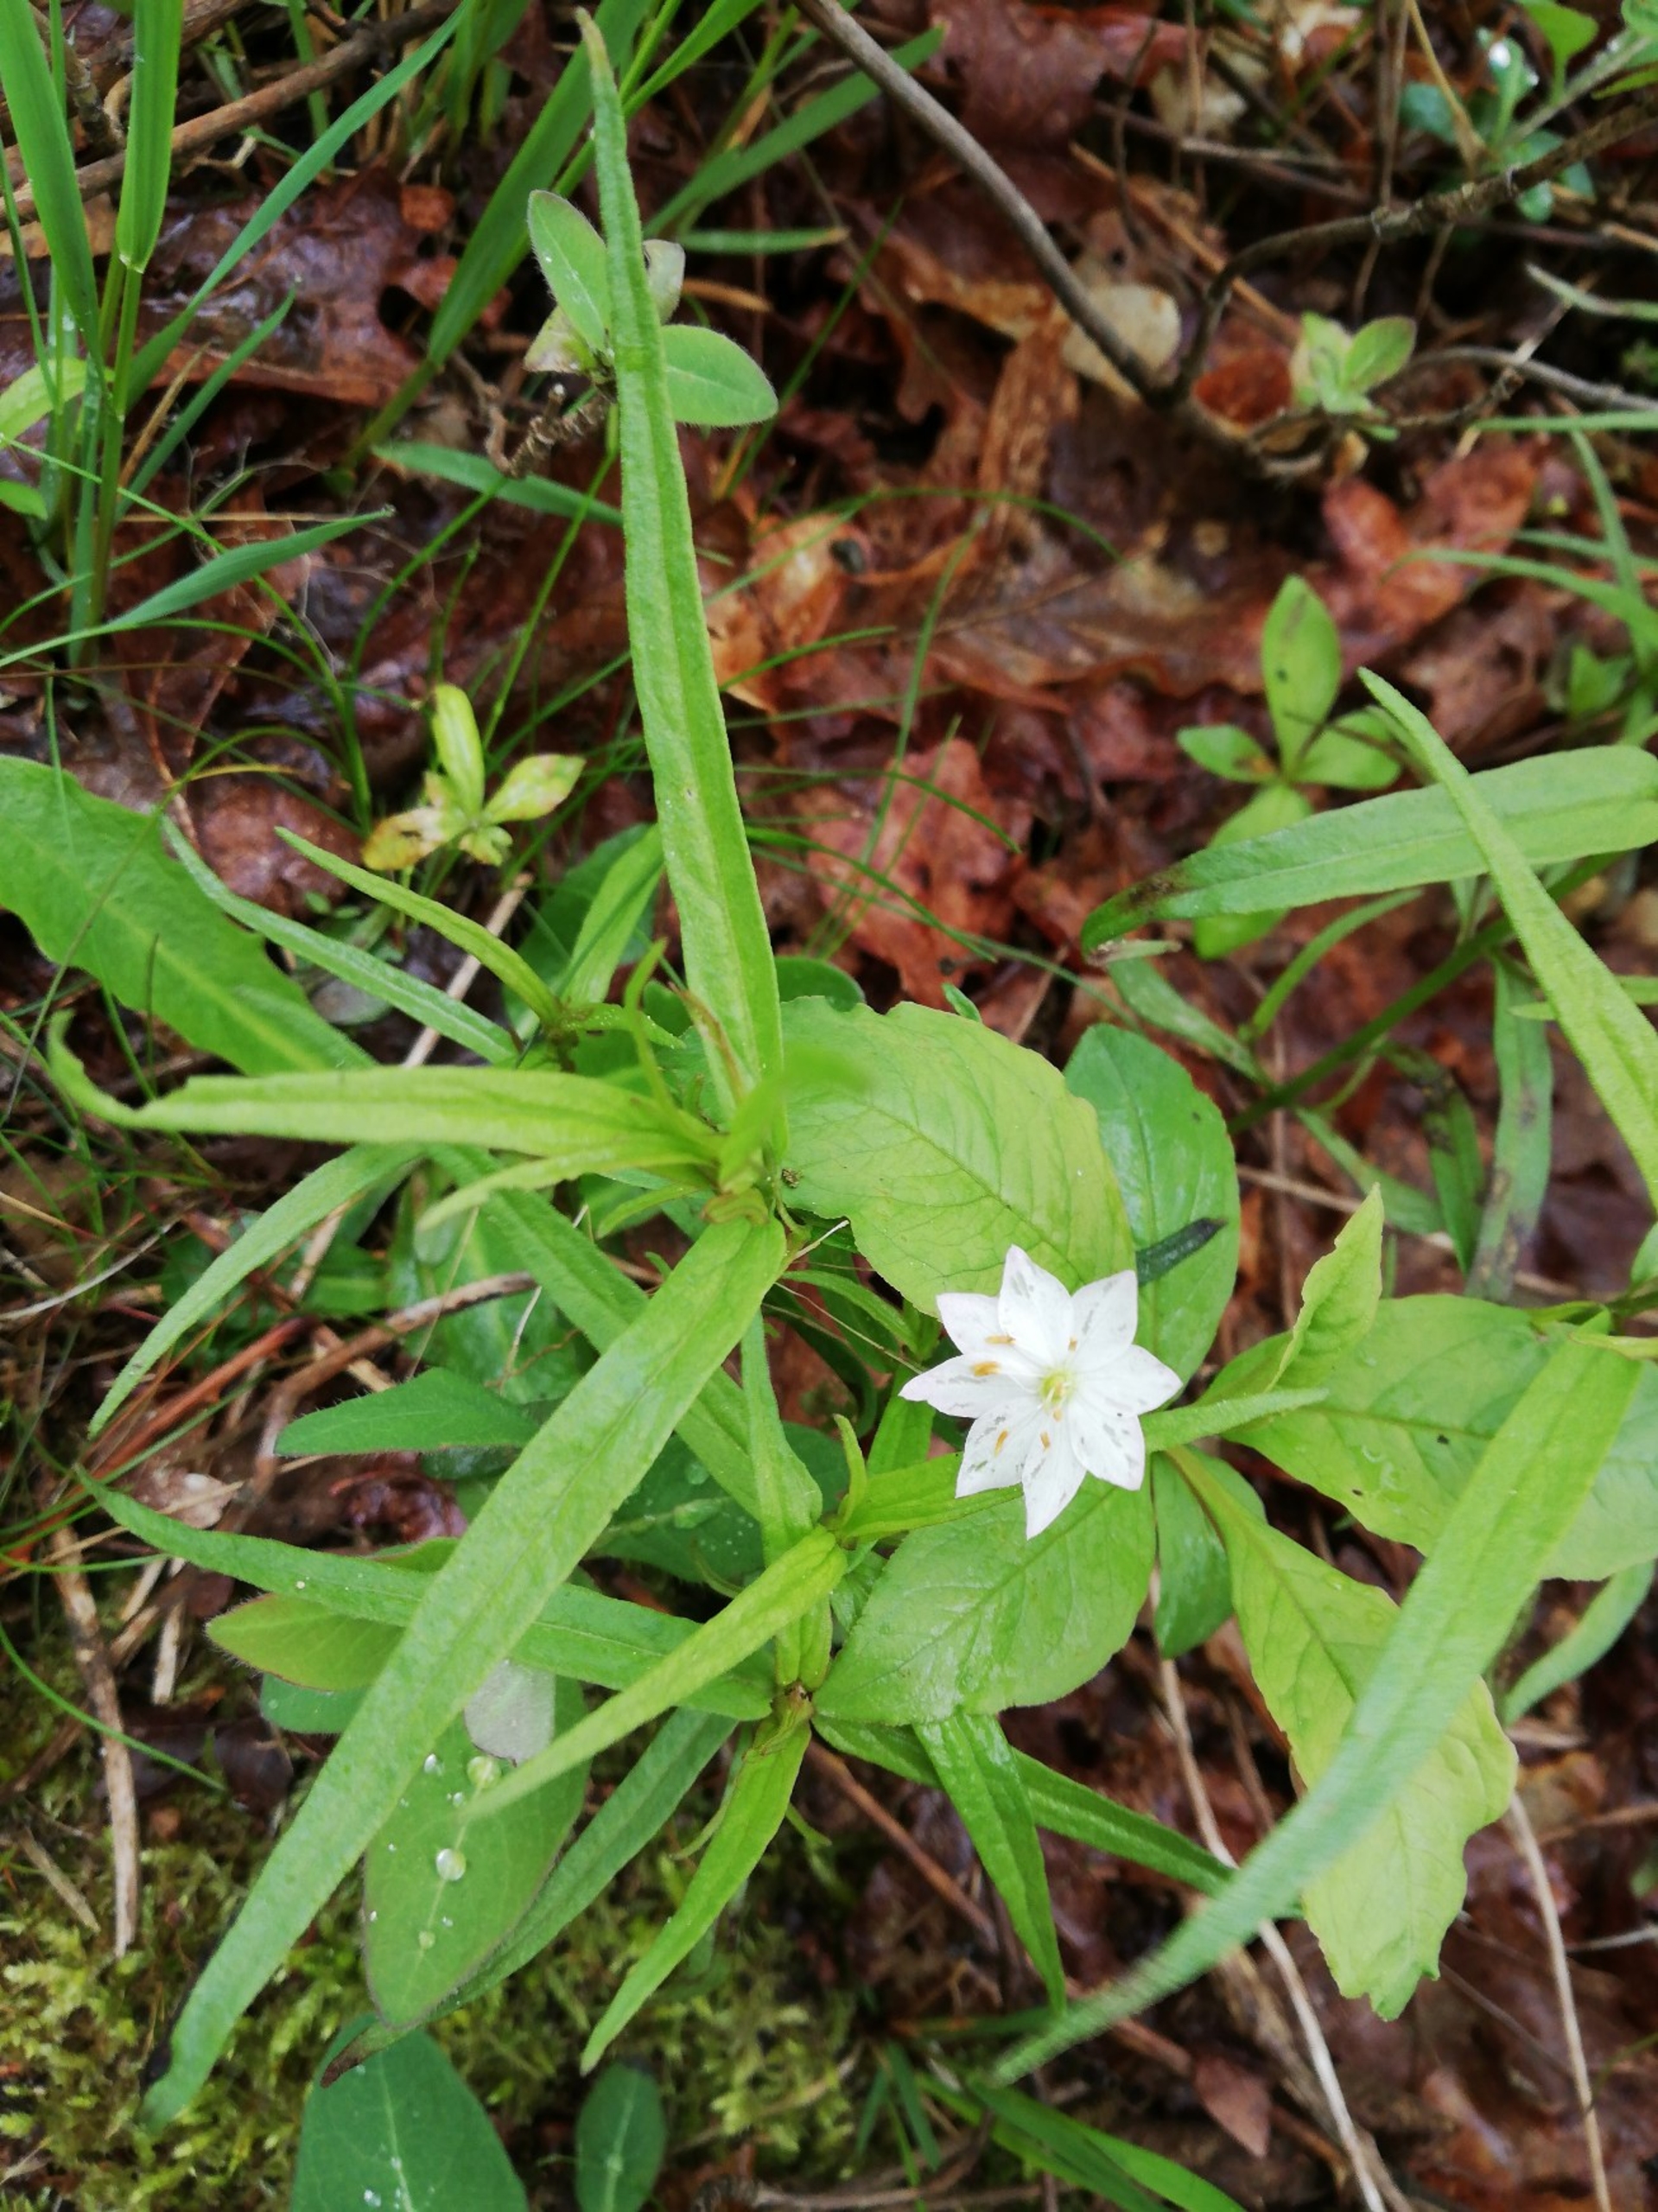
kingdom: Plantae
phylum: Tracheophyta
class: Magnoliopsida
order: Ericales
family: Primulaceae
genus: Lysimachia
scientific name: Lysimachia europaea
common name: Skovstjerne
